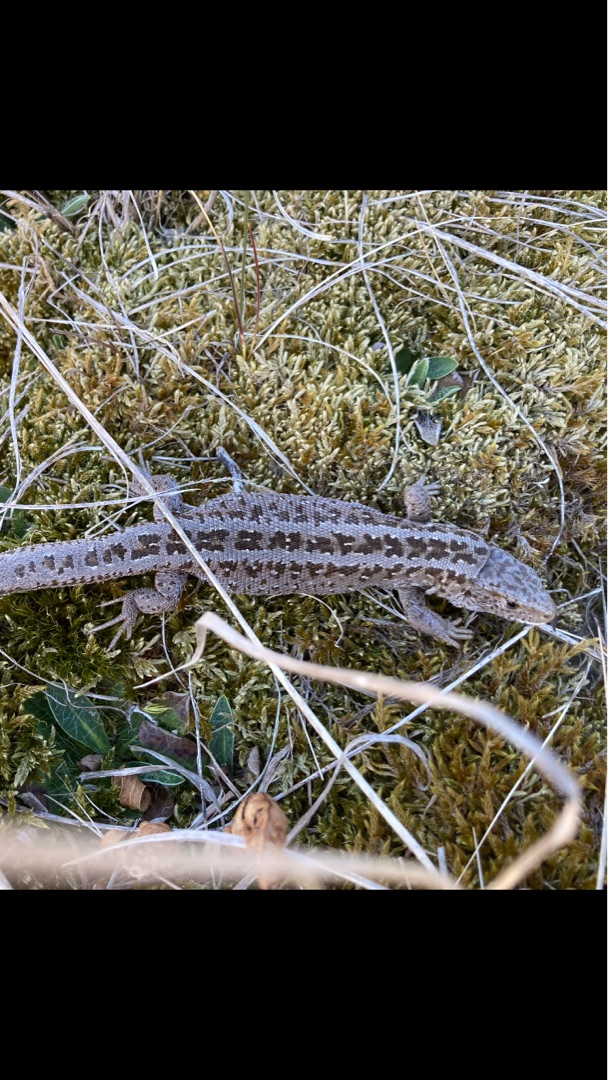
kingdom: Animalia
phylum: Chordata
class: Squamata
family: Lacertidae
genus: Lacerta
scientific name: Lacerta agilis
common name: Markfirben
